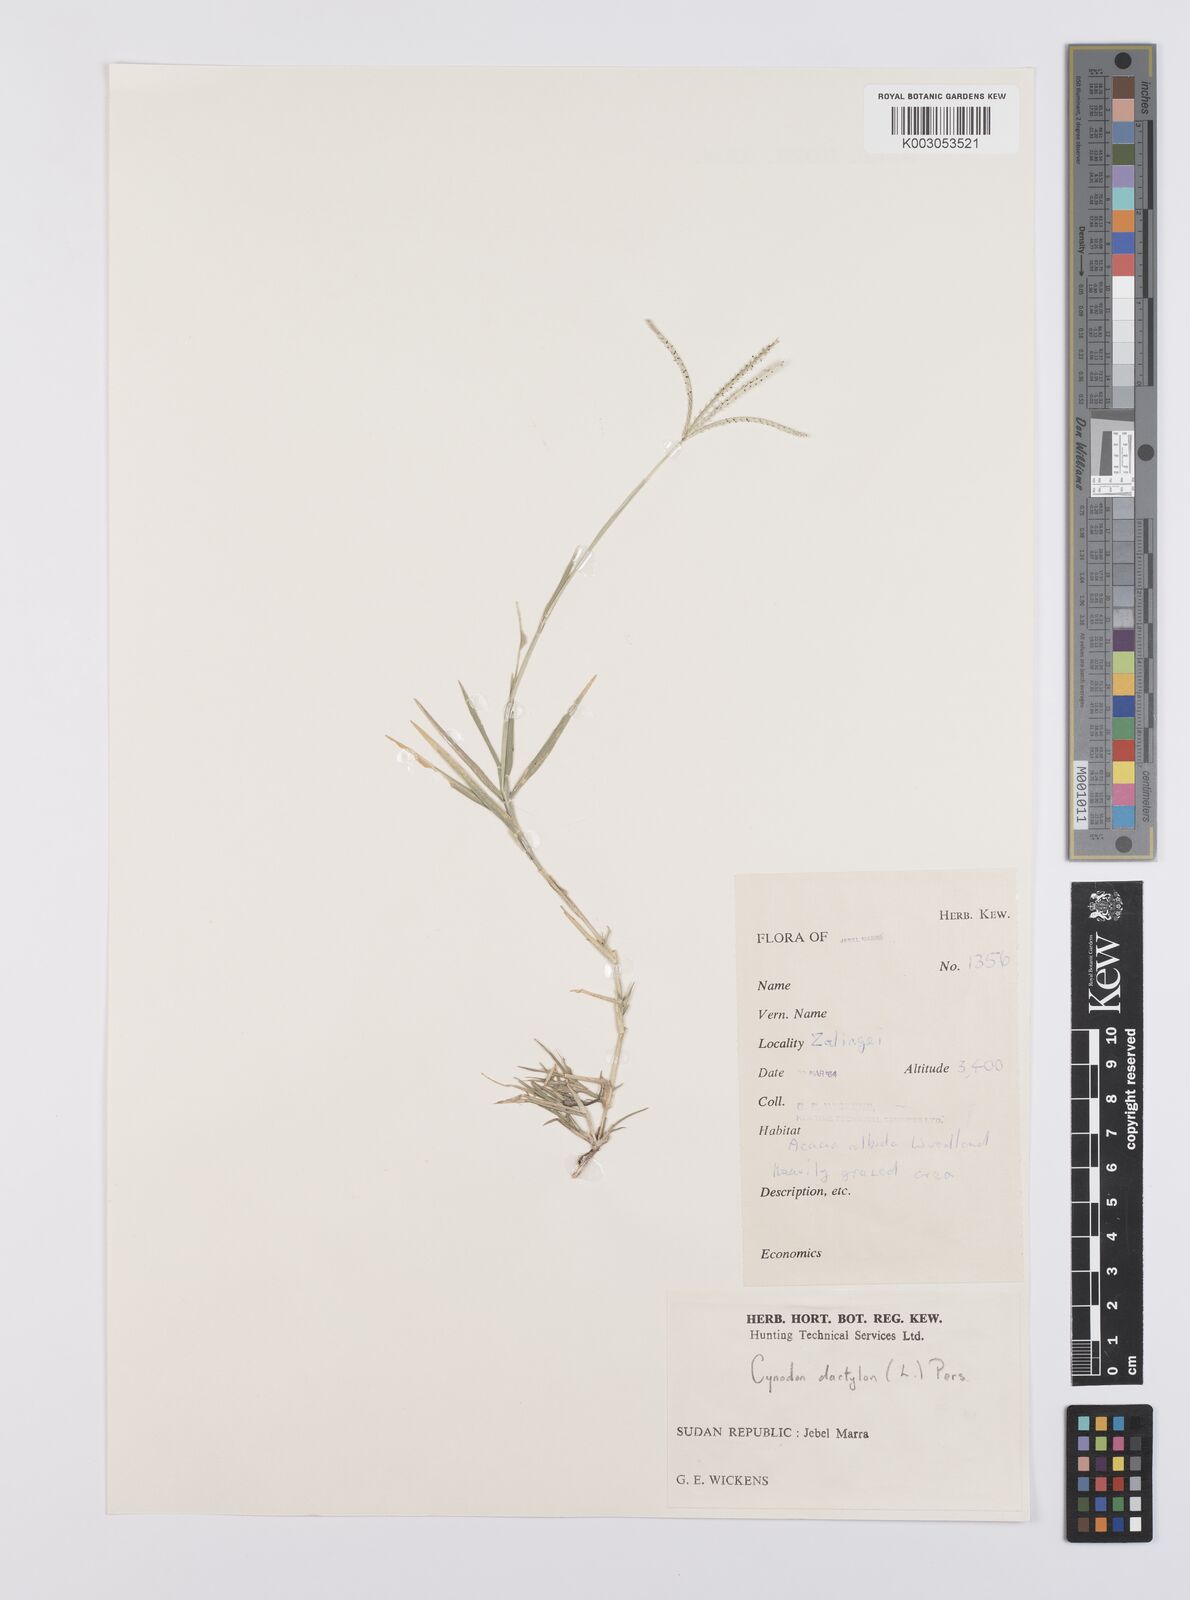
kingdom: Plantae
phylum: Tracheophyta
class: Liliopsida
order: Poales
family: Poaceae
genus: Cynodon
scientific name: Cynodon dactylon
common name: Bermuda grass
